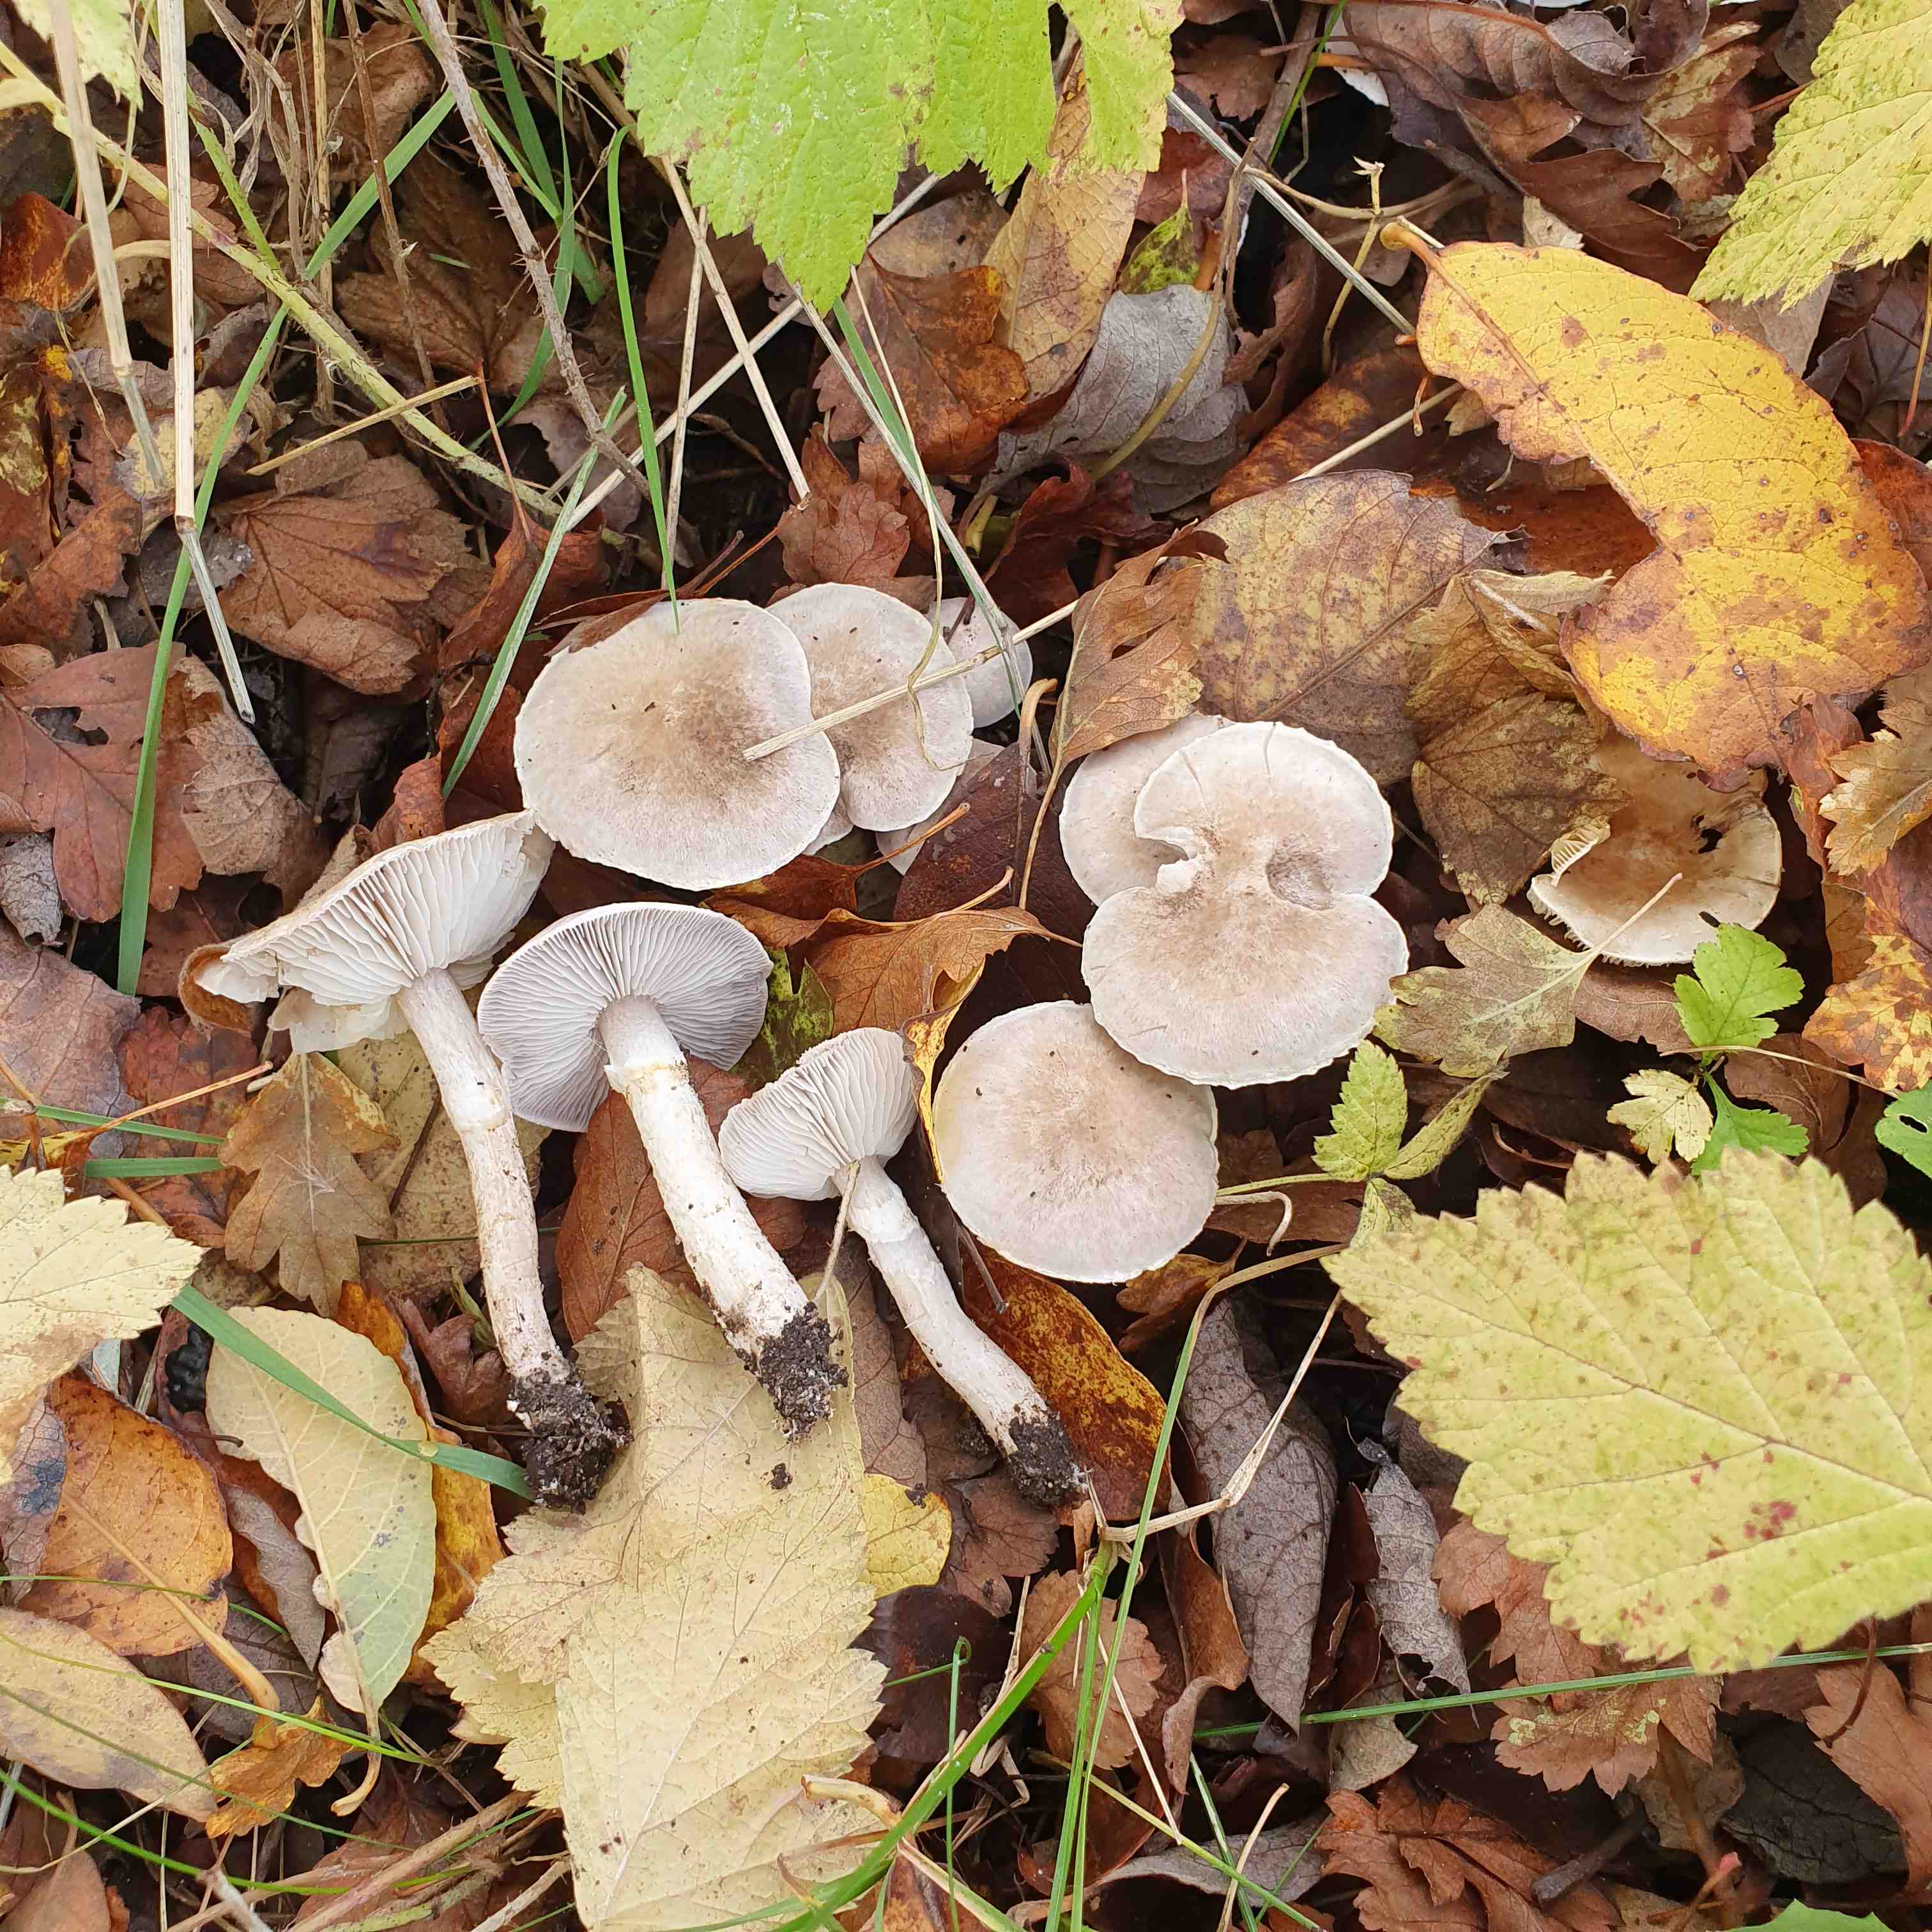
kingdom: Fungi
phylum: Basidiomycota
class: Agaricomycetes
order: Agaricales
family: Tricholomataceae
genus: Tricholoma
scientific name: Tricholoma cingulatum
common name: ring-ridderhat
